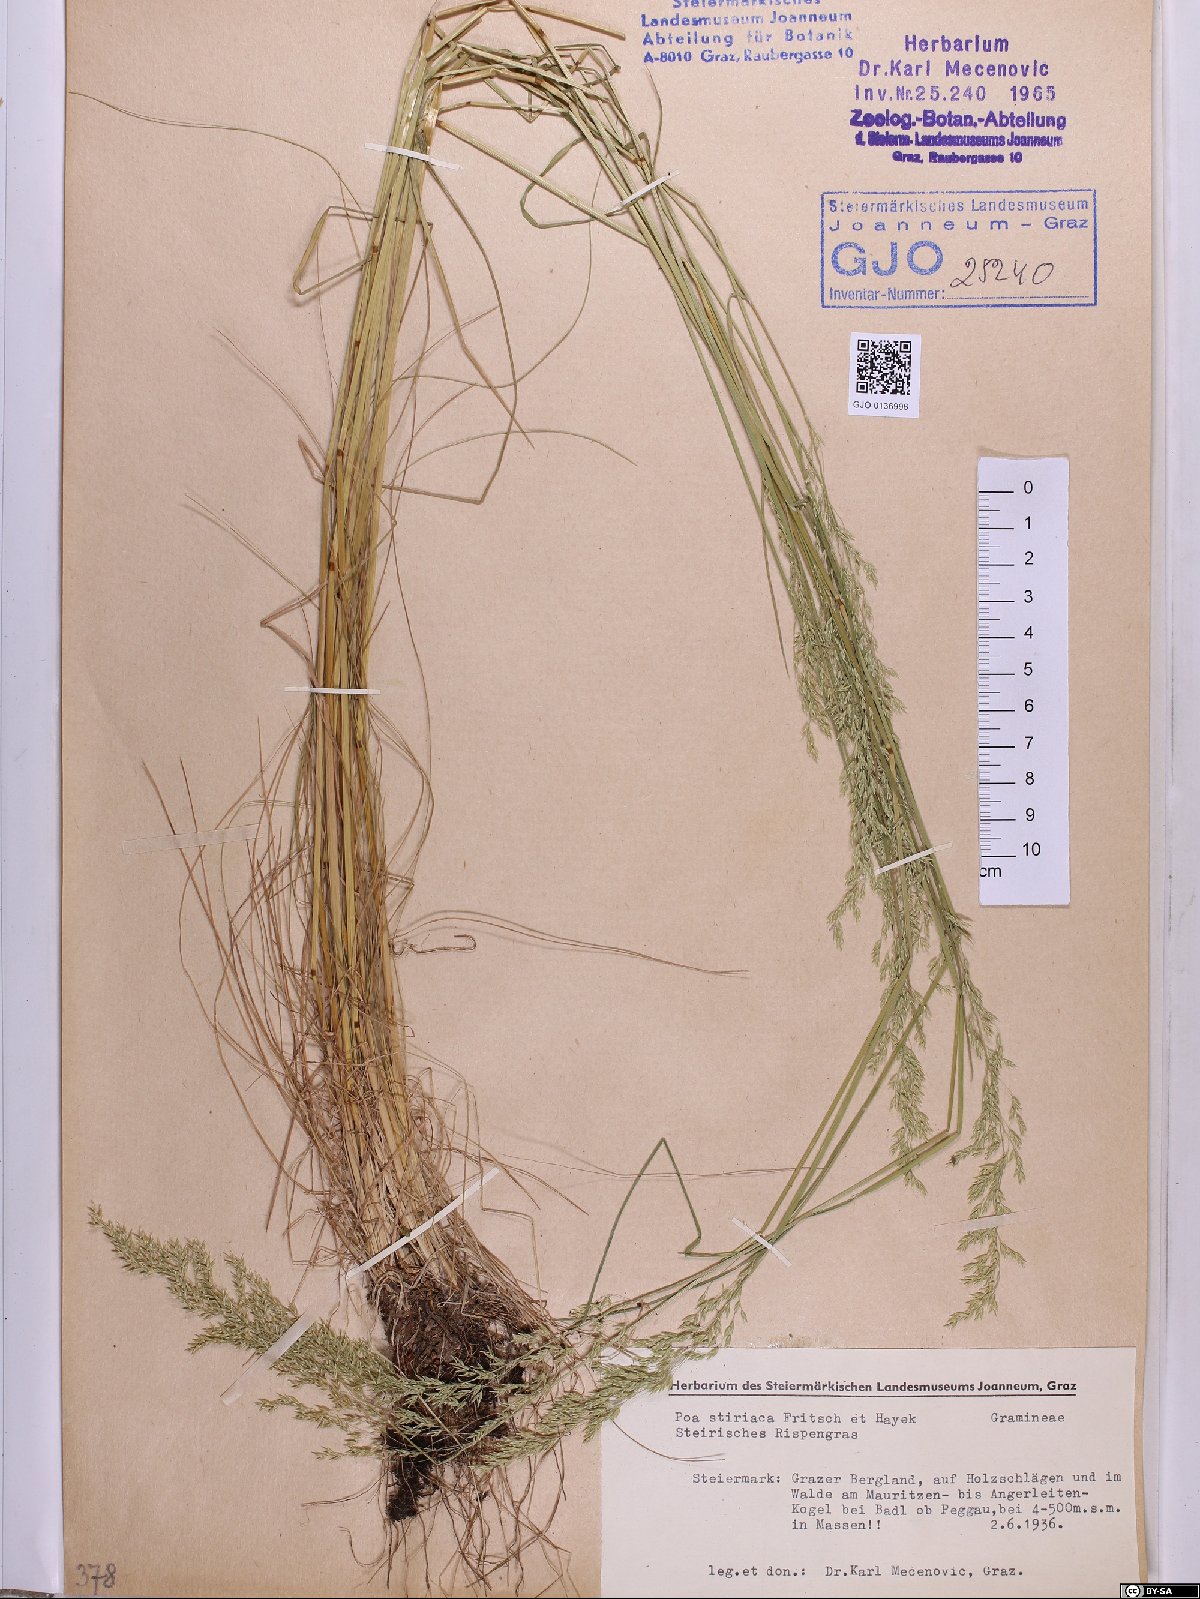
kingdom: Plantae
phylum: Tracheophyta
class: Liliopsida
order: Poales
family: Poaceae
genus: Poa
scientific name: Poa stiriaca
